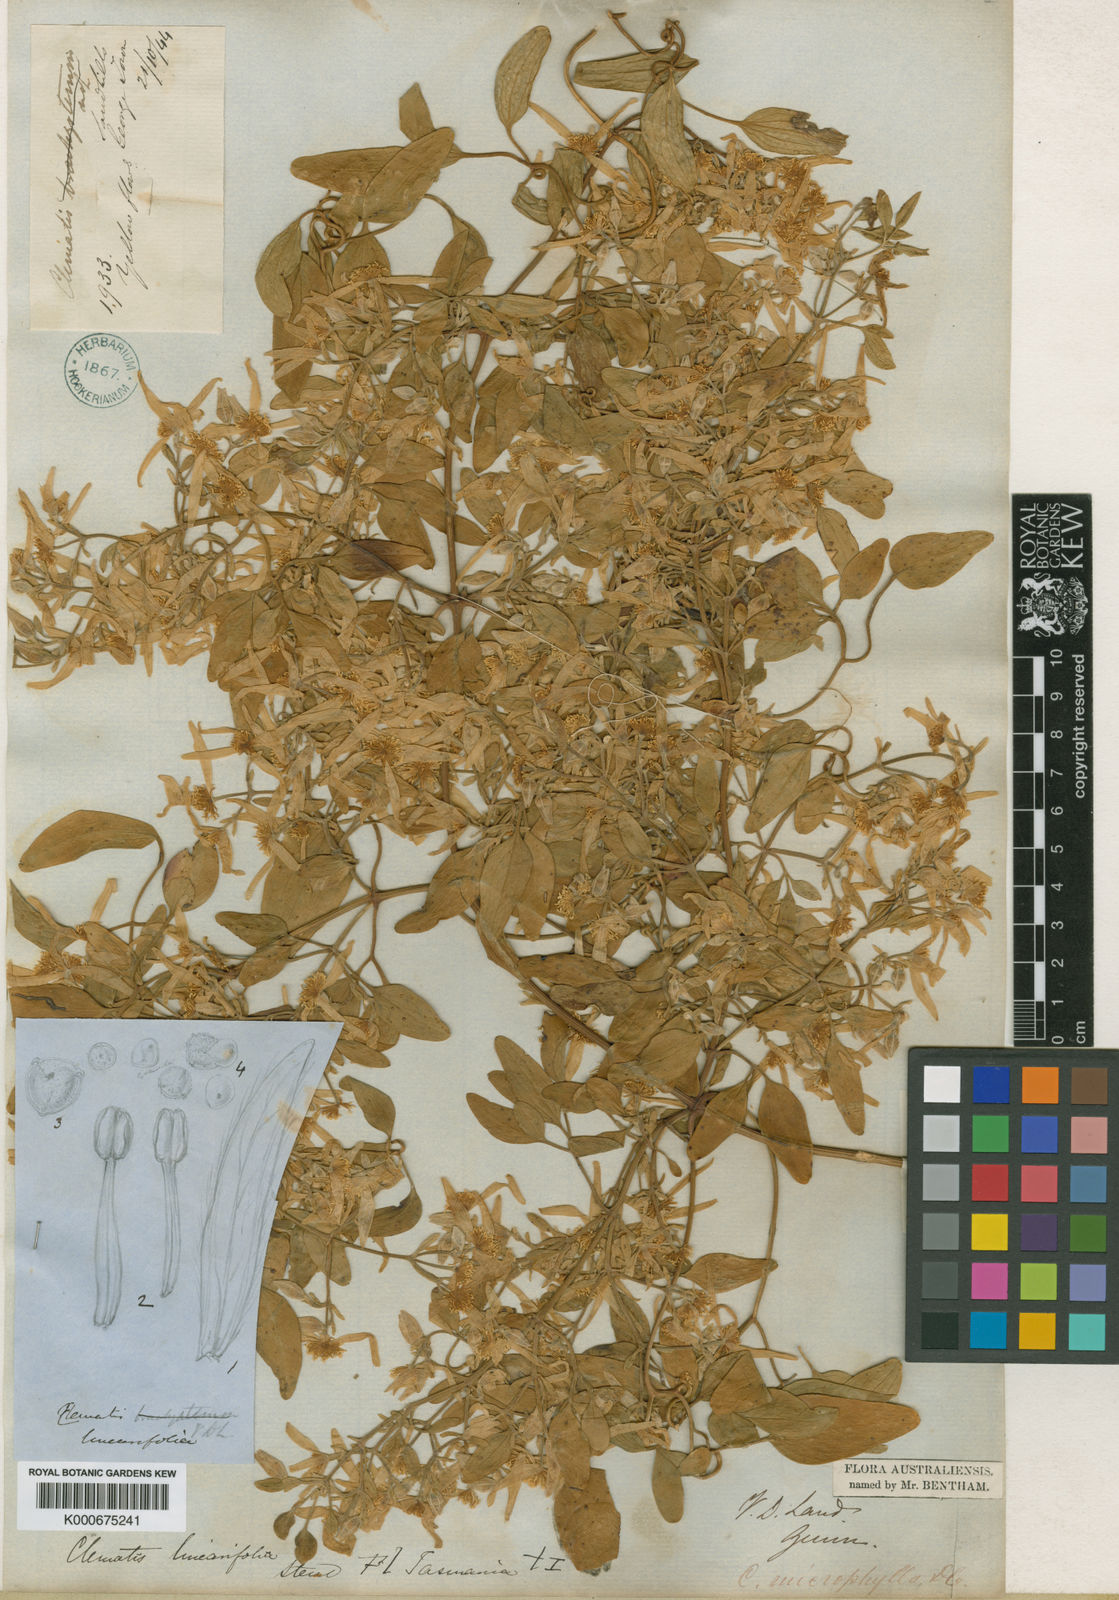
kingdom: Plantae
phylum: Tracheophyta
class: Magnoliopsida
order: Ranunculales
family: Ranunculaceae
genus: Clematis
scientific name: Clematis microphylla
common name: Headachevine
